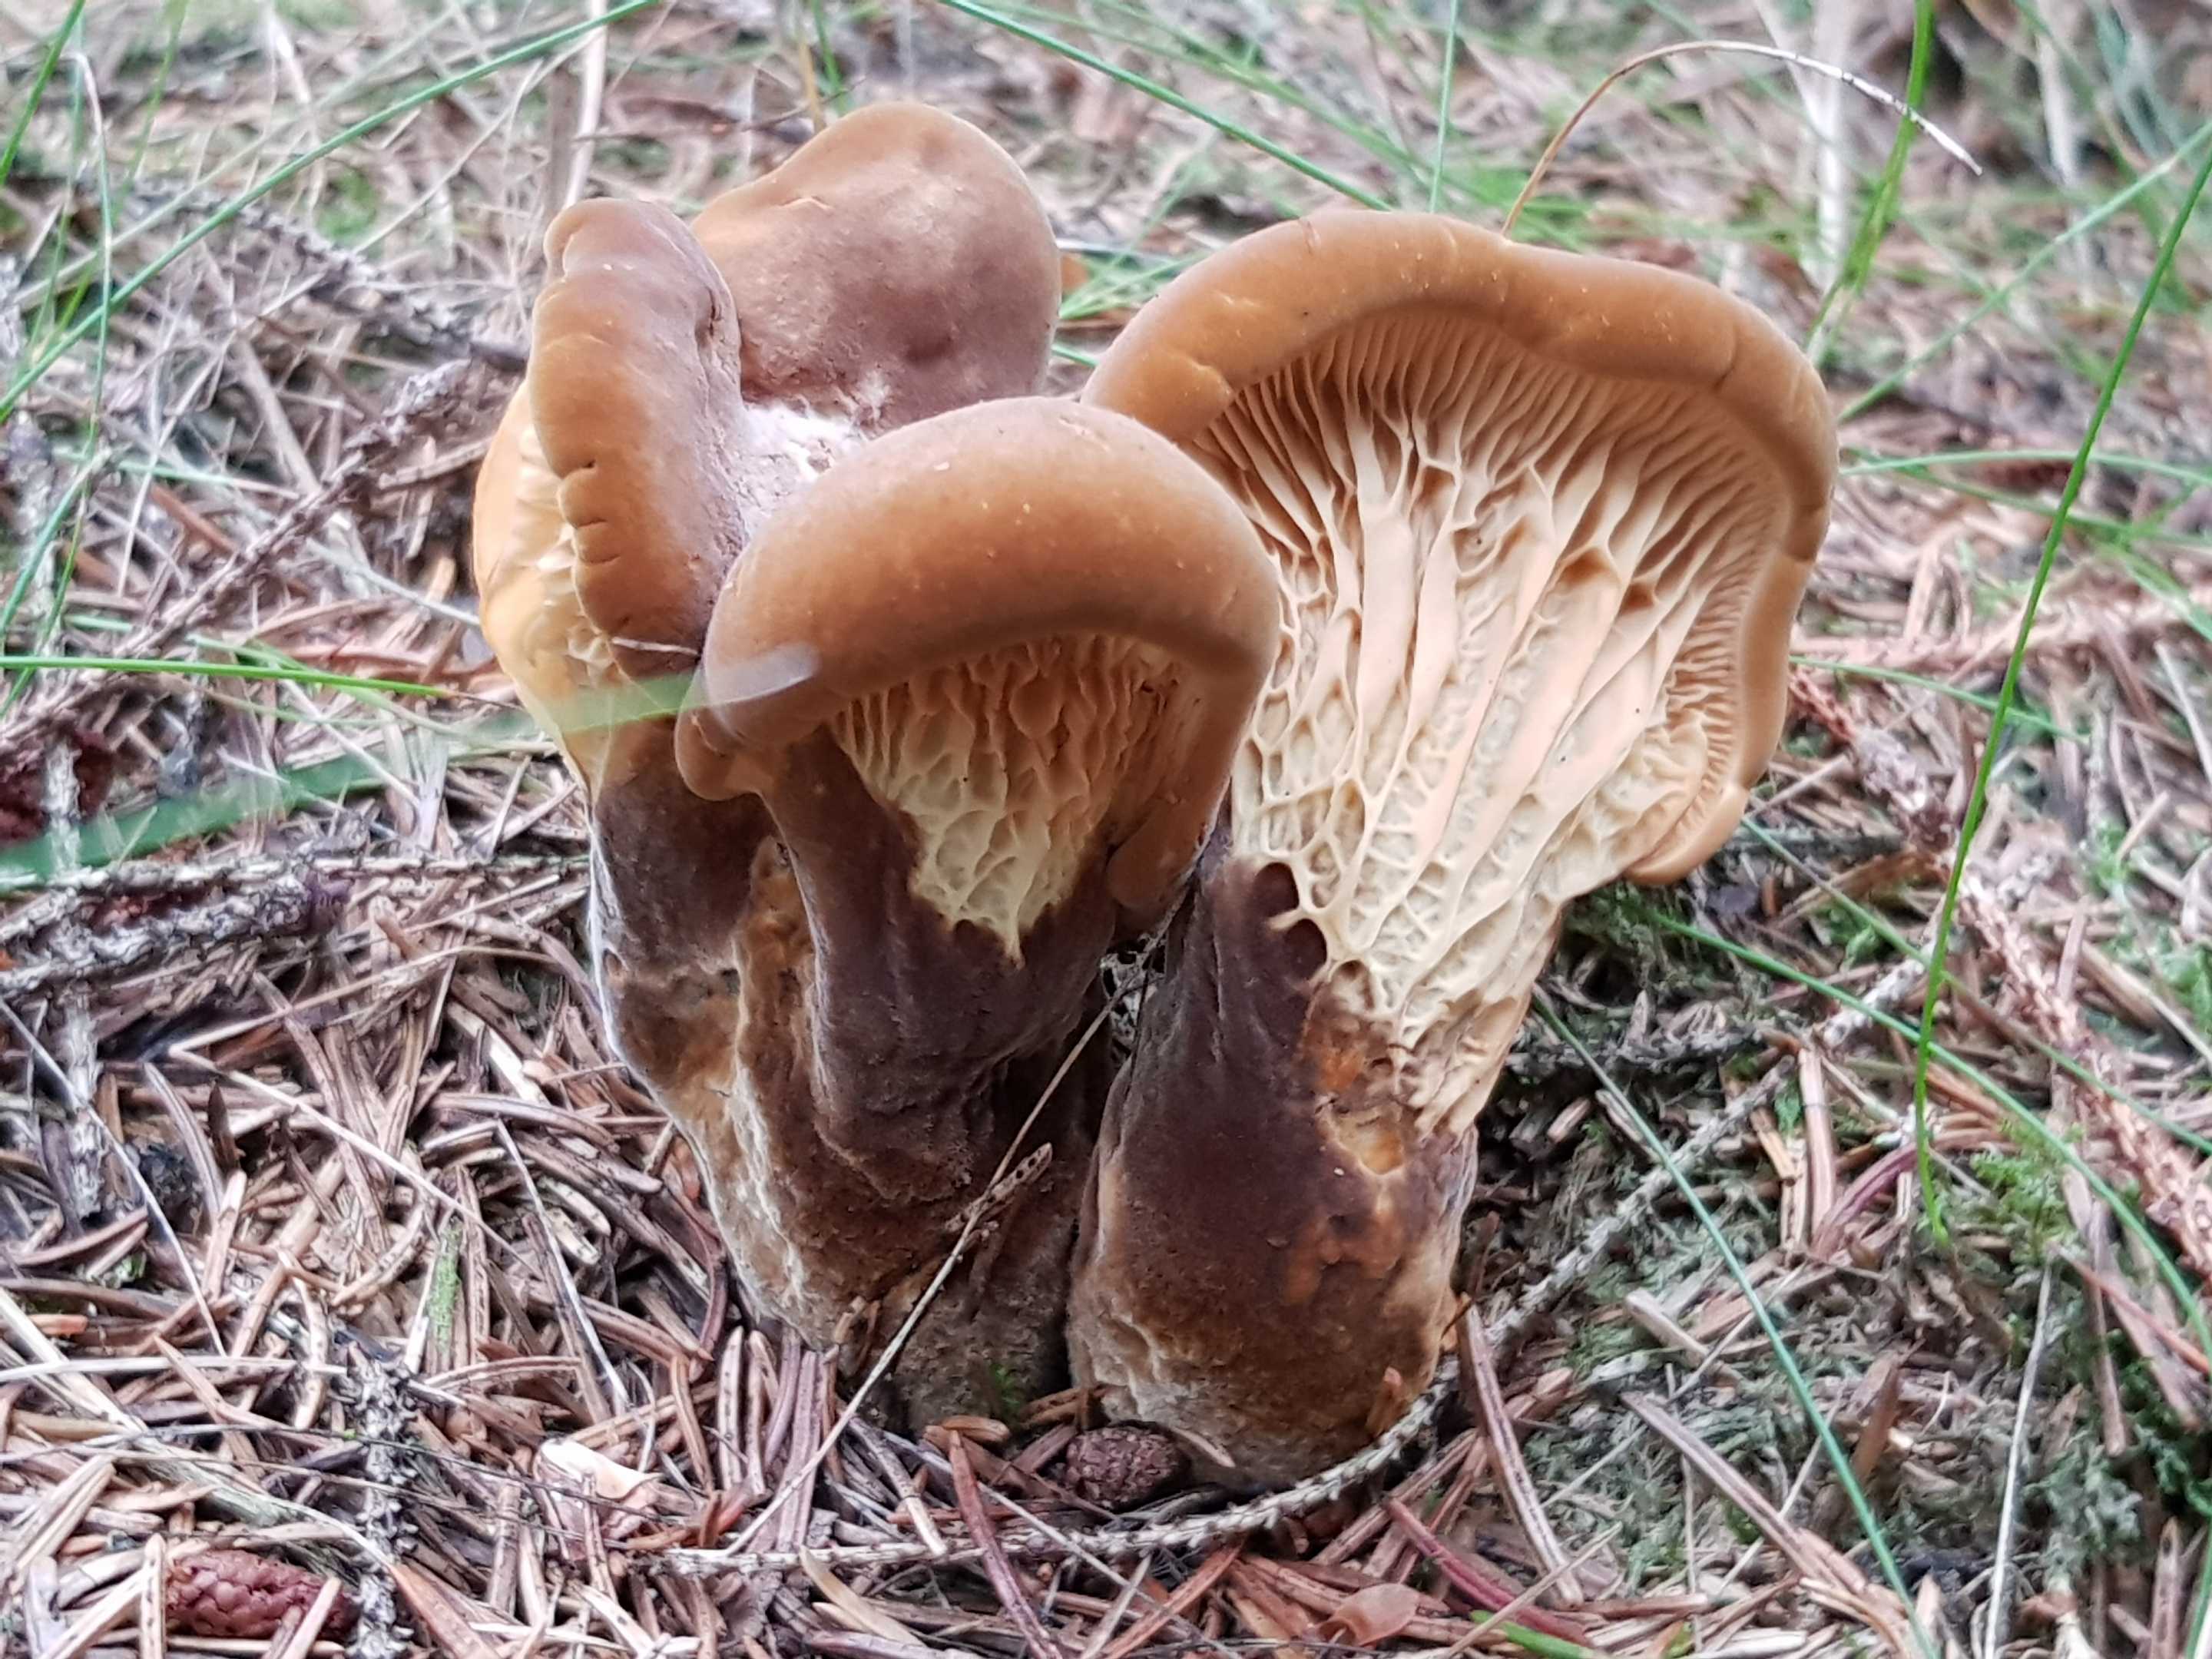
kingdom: Fungi
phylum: Basidiomycota
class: Agaricomycetes
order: Boletales
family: Tapinellaceae
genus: Tapinella
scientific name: Tapinella atrotomentosa
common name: sortfiltet viftesvamp
